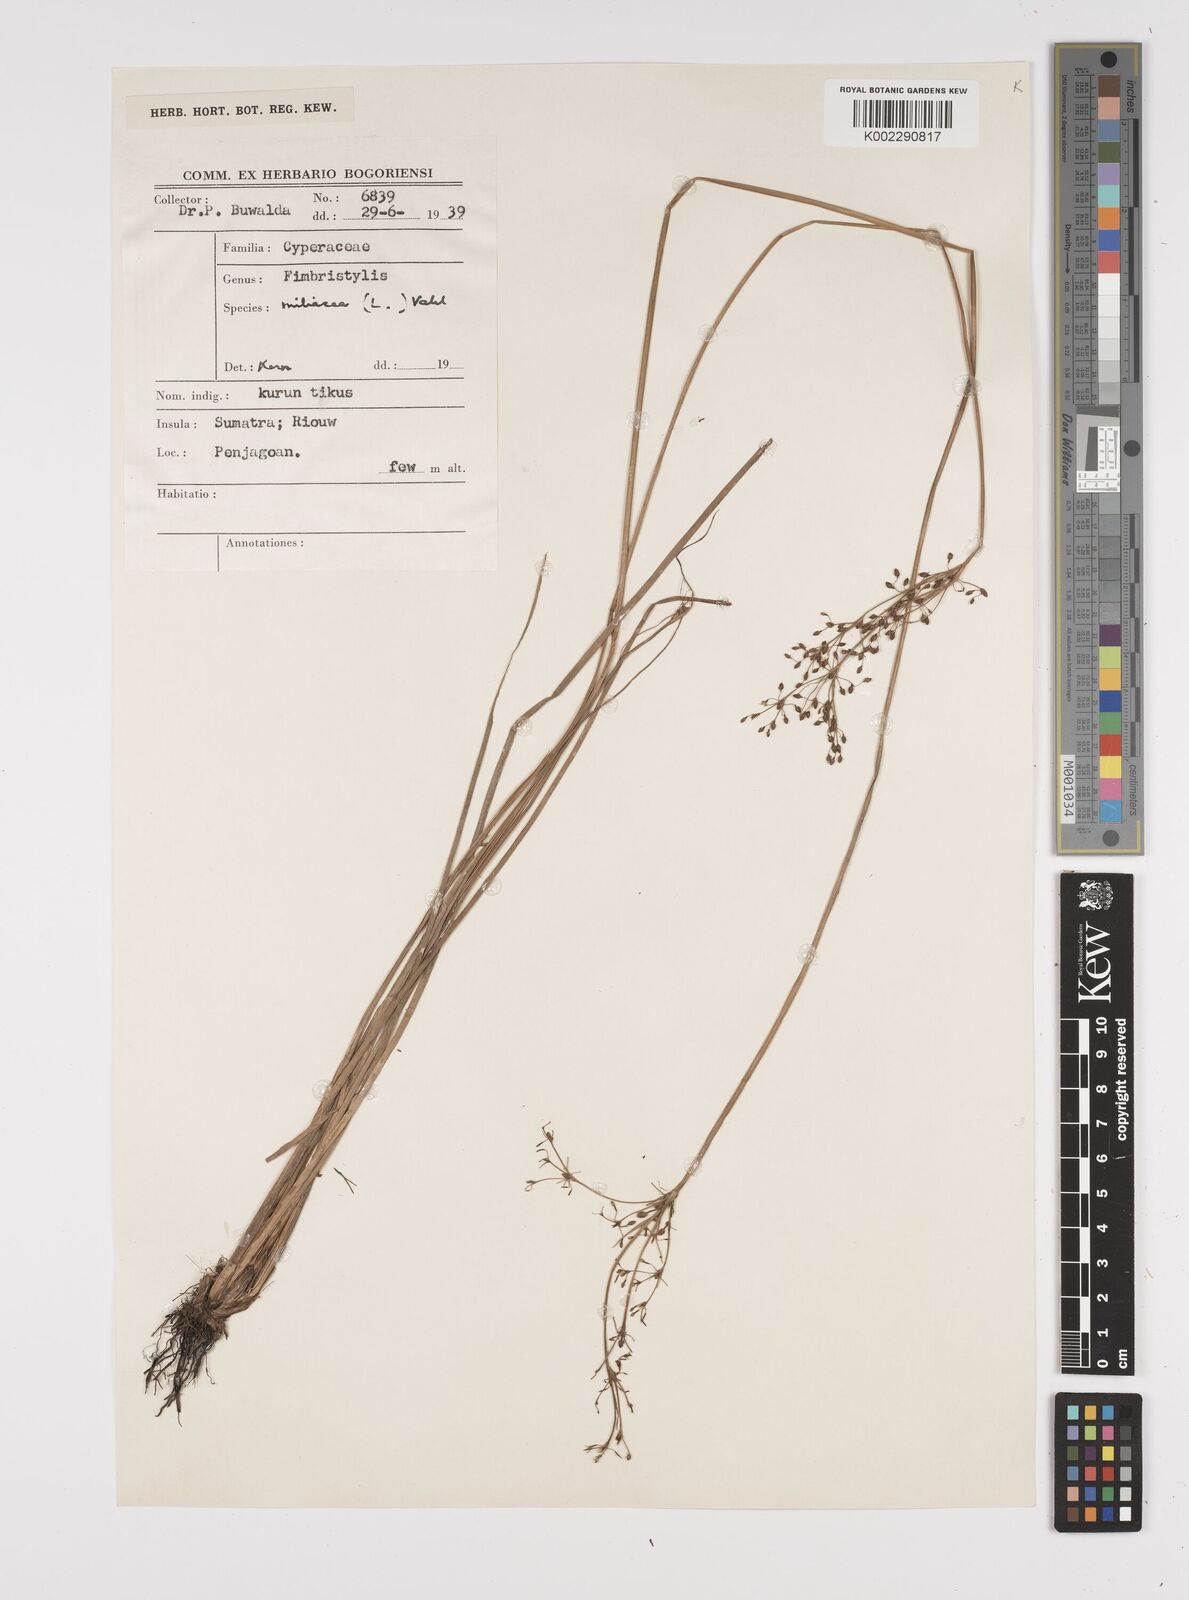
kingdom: Plantae
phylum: Tracheophyta
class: Liliopsida
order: Poales
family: Cyperaceae
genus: Fimbristylis
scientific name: Fimbristylis littoralis
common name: Fimbry
